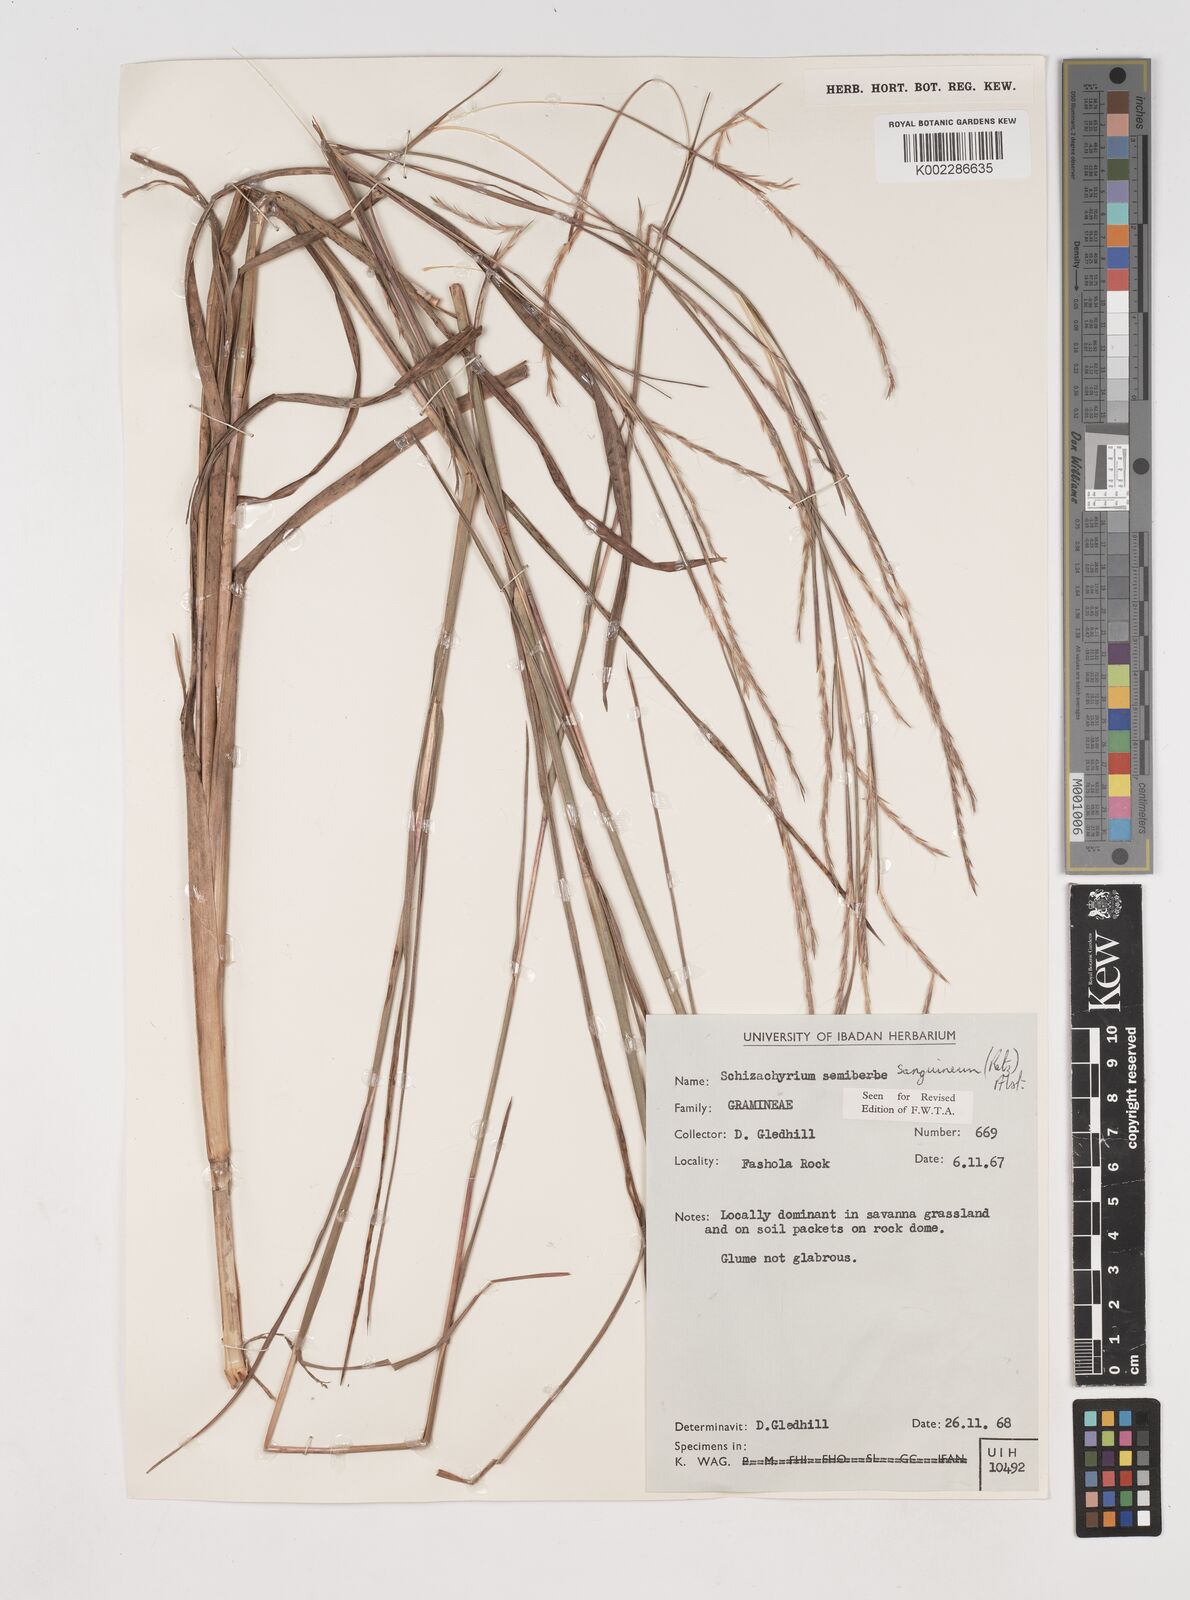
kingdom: Plantae
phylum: Tracheophyta
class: Liliopsida
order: Poales
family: Poaceae
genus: Schizachyrium
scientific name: Schizachyrium sanguineum
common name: Crimson bluestem
